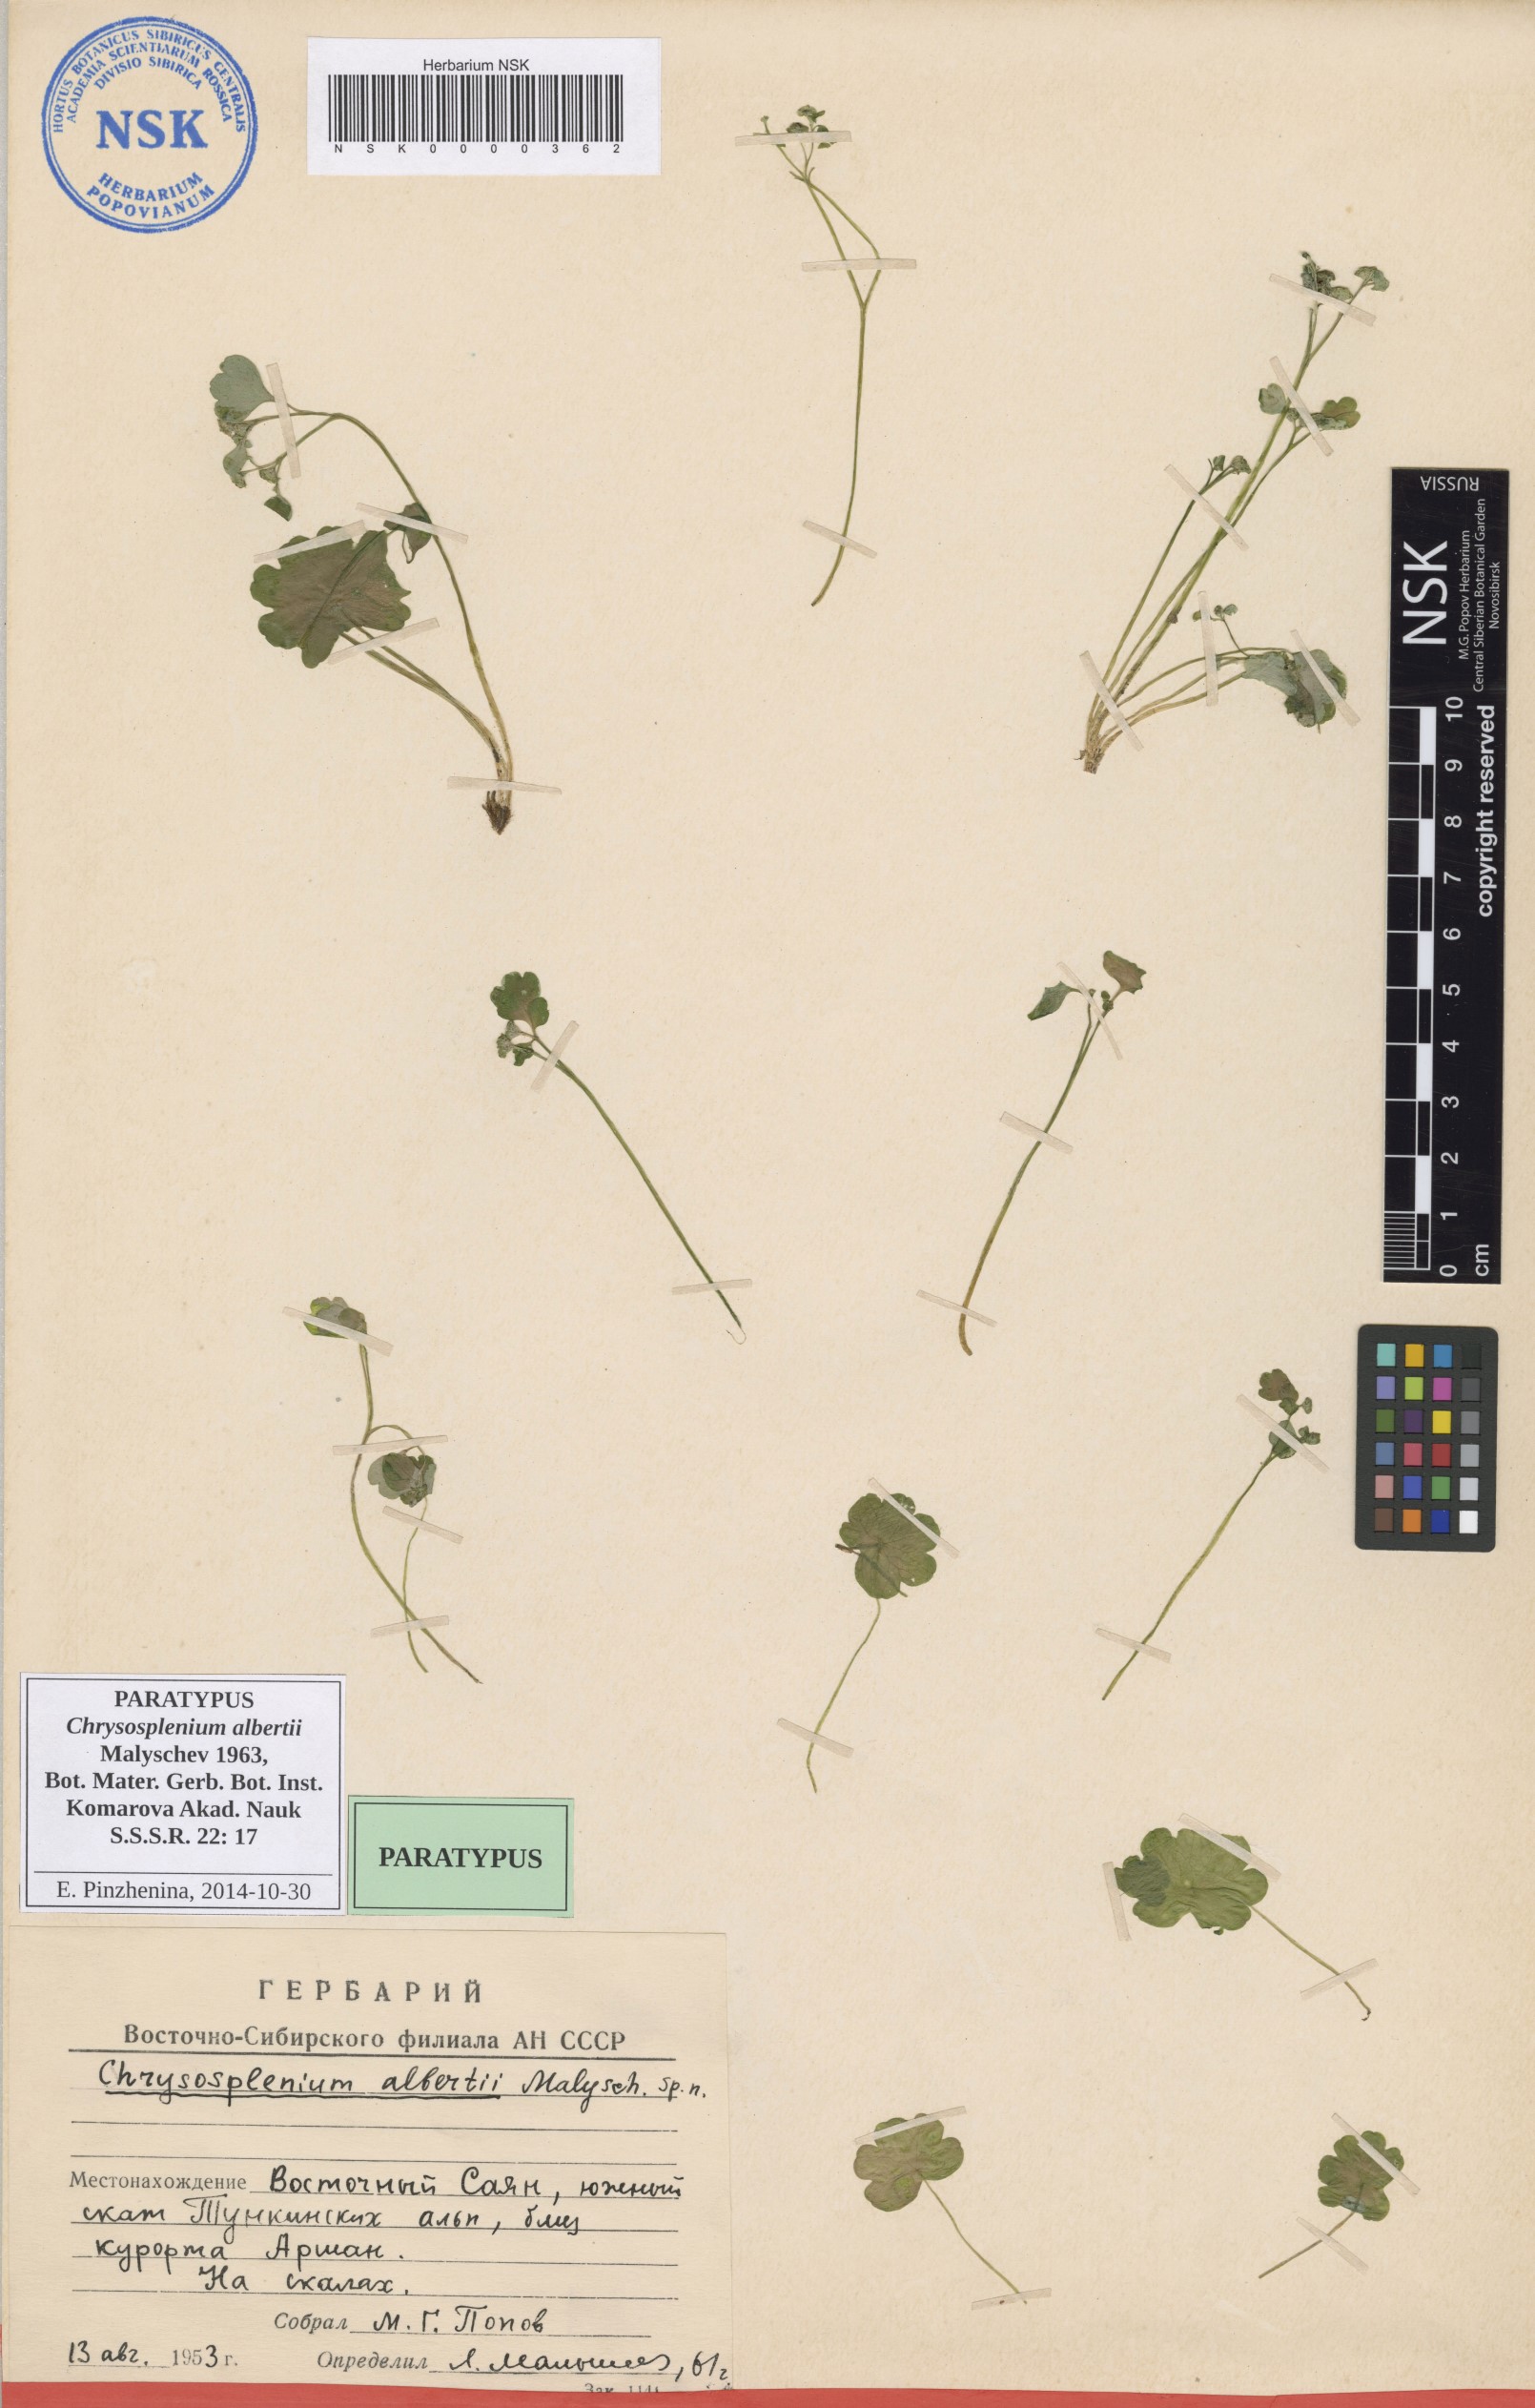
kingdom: Plantae
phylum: Tracheophyta
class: Magnoliopsida
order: Saxifragales
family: Saxifragaceae
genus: Chrysosplenium
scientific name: Chrysosplenium albertii
